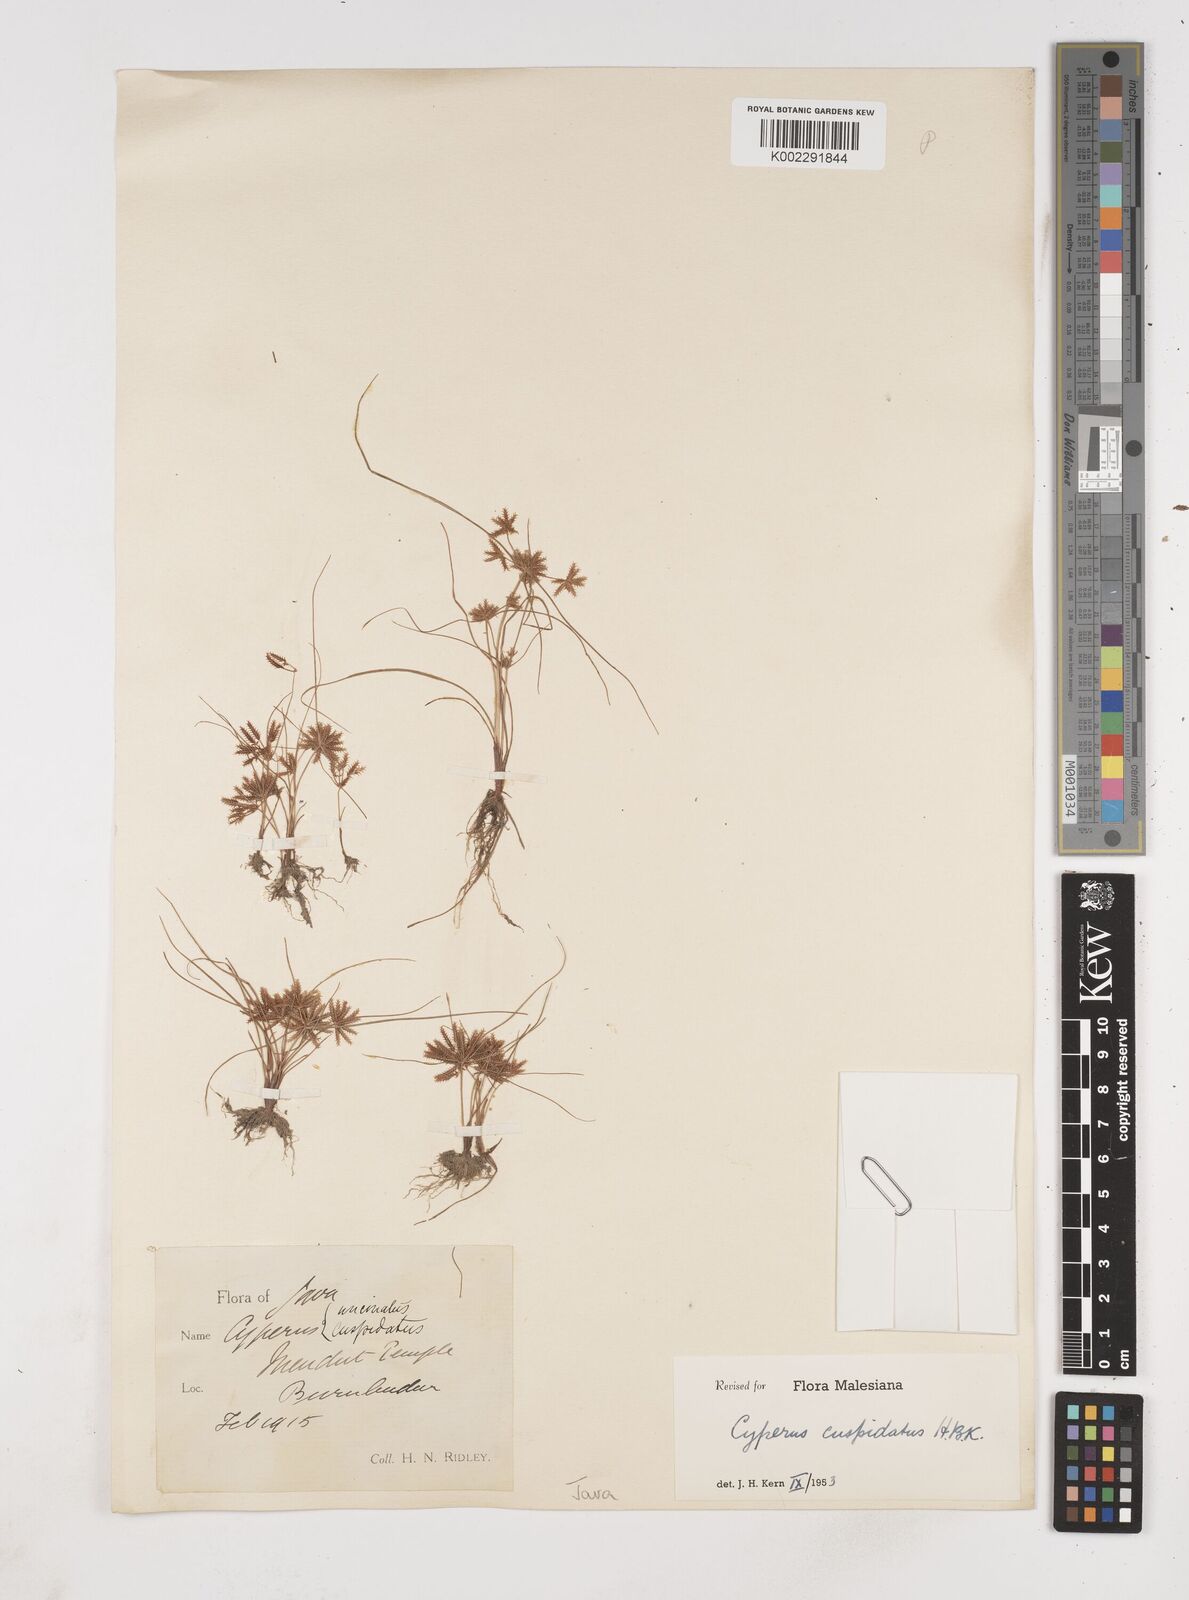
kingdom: Plantae
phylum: Tracheophyta
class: Liliopsida
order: Poales
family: Cyperaceae
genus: Cyperus
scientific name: Cyperus cuspidatus
